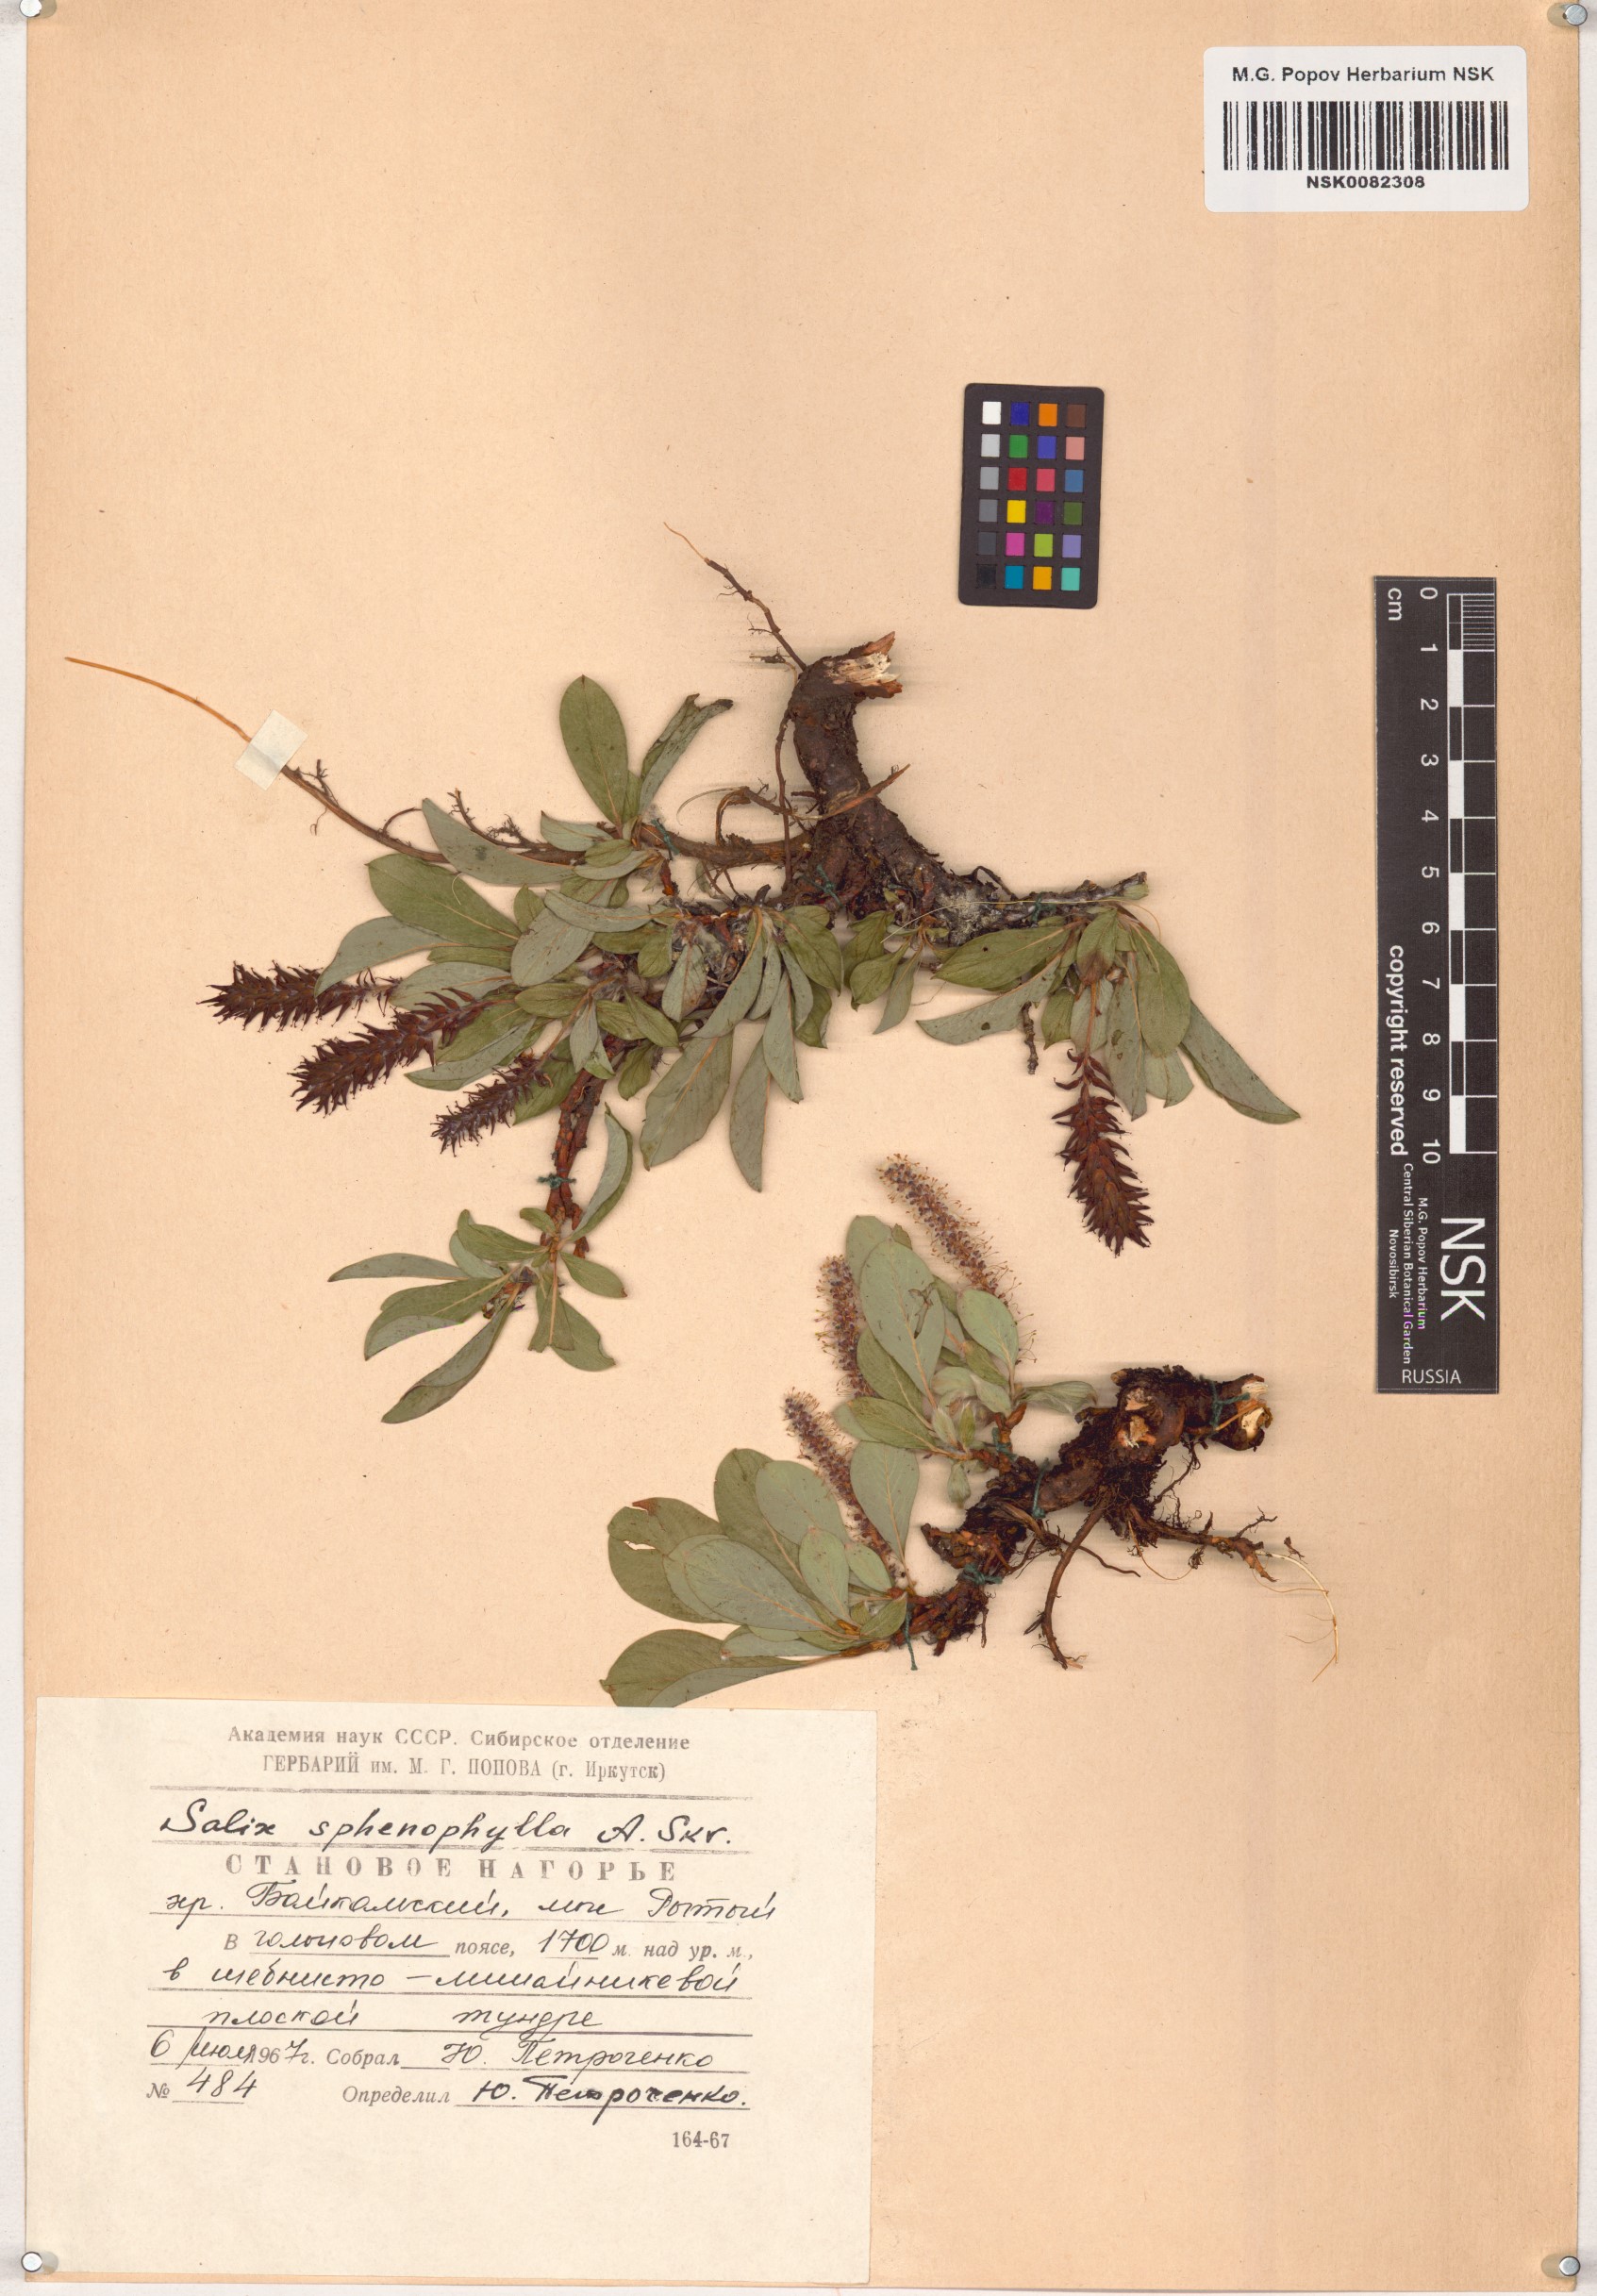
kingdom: Plantae
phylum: Tracheophyta
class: Magnoliopsida
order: Malpighiales
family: Salicaceae
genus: Salix
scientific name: Salix sphenophylla
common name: Wedge-leaved willow
